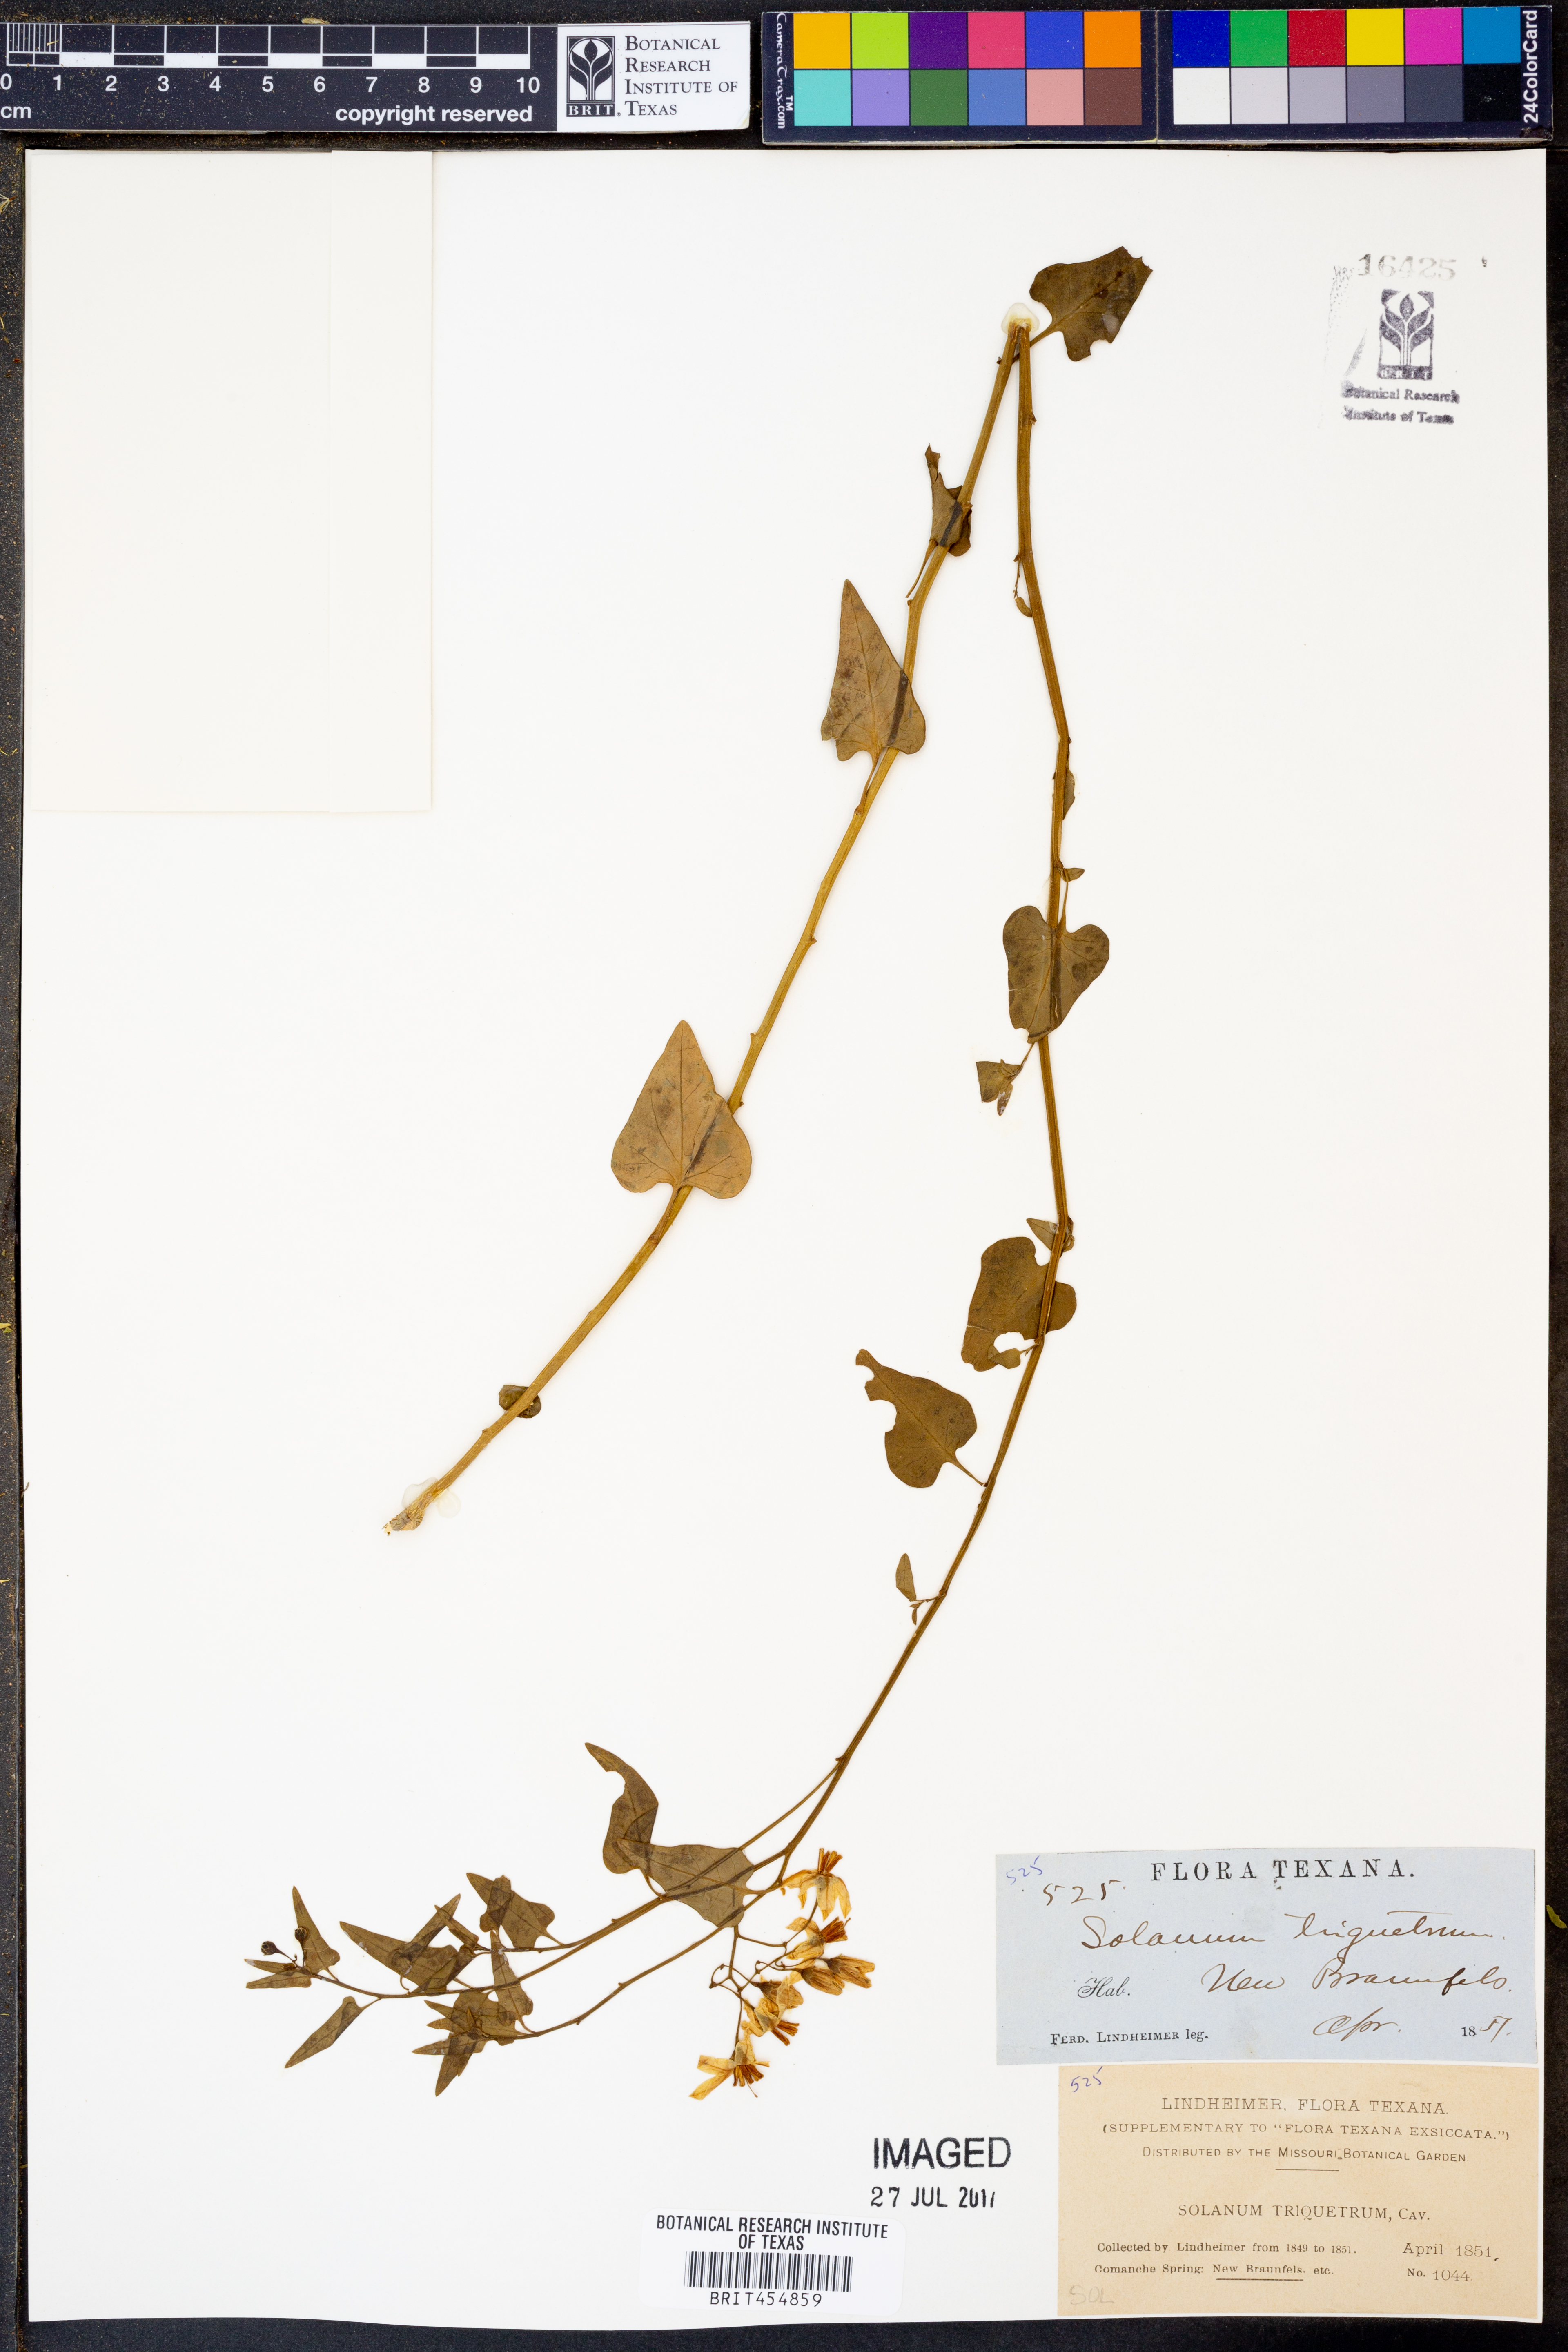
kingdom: Plantae
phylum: Tracheophyta
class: Magnoliopsida
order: Solanales
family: Solanaceae
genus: Solanum
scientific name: Solanum triquetrum
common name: Texas nightshade
